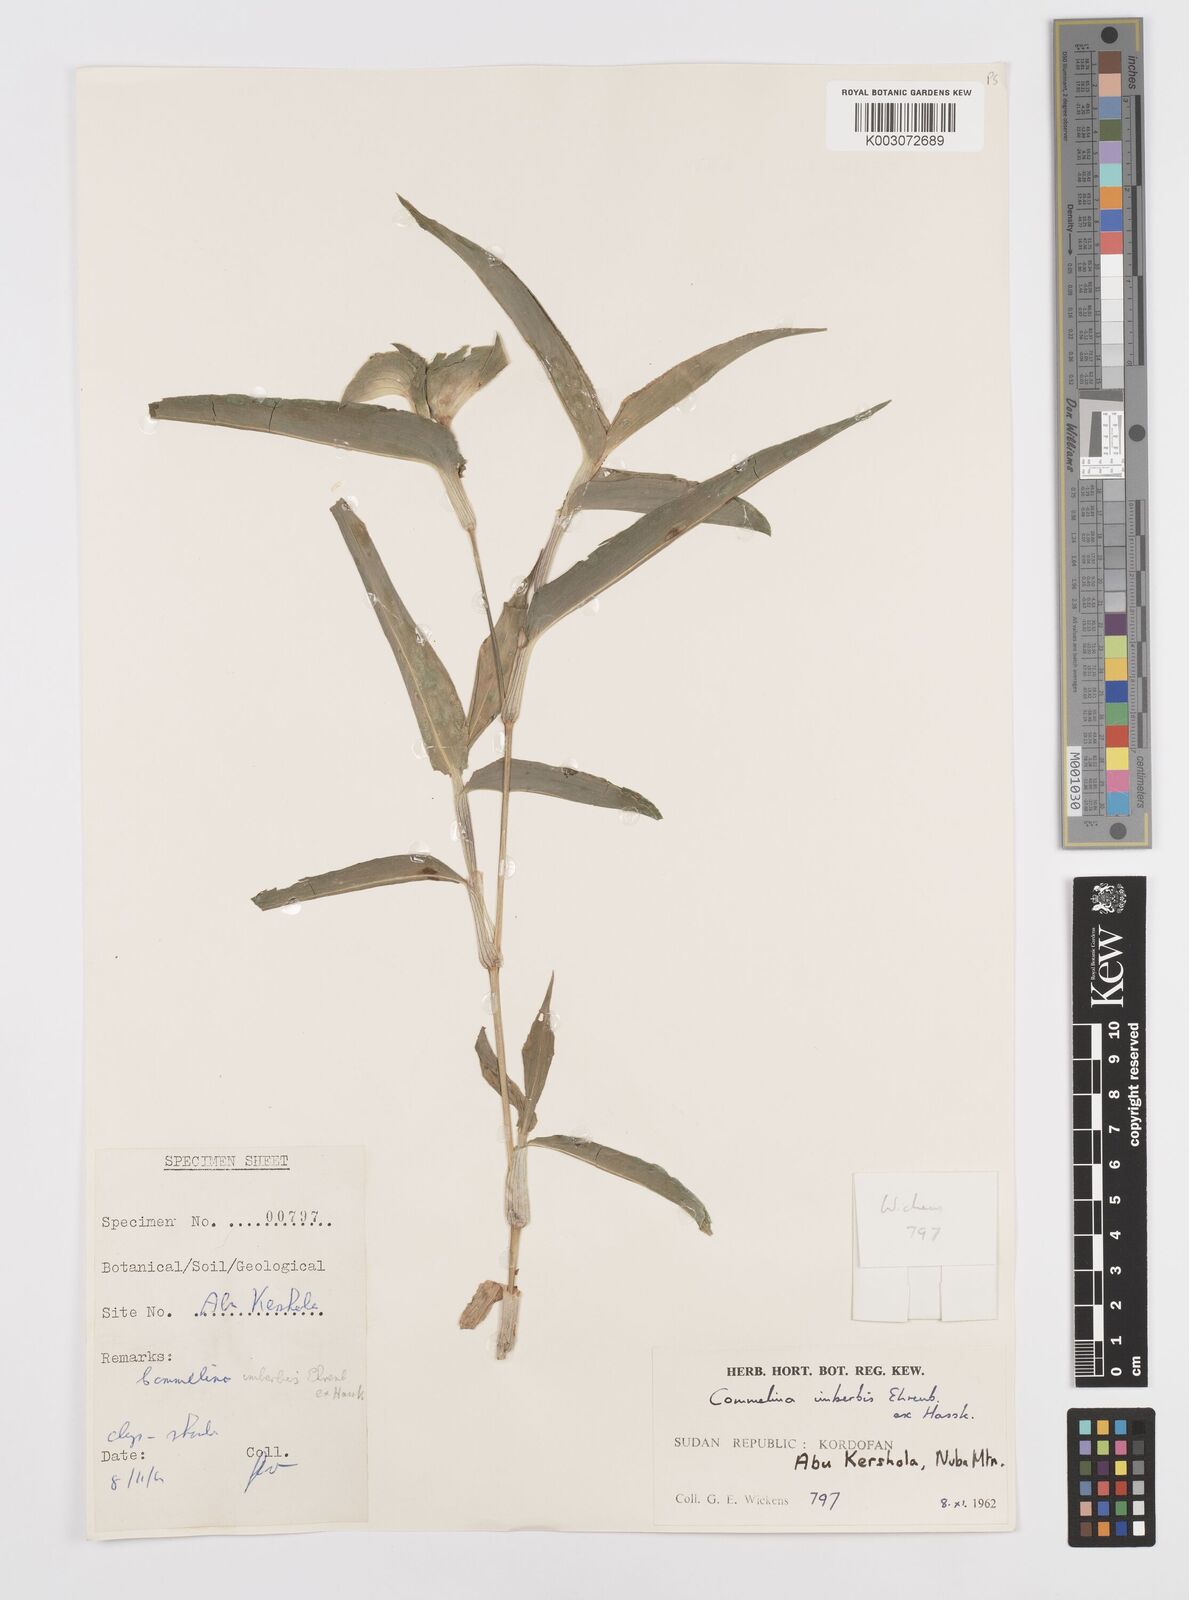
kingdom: Plantae
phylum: Tracheophyta
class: Liliopsida
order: Commelinales
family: Commelinaceae
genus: Commelina
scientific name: Commelina imberbis
